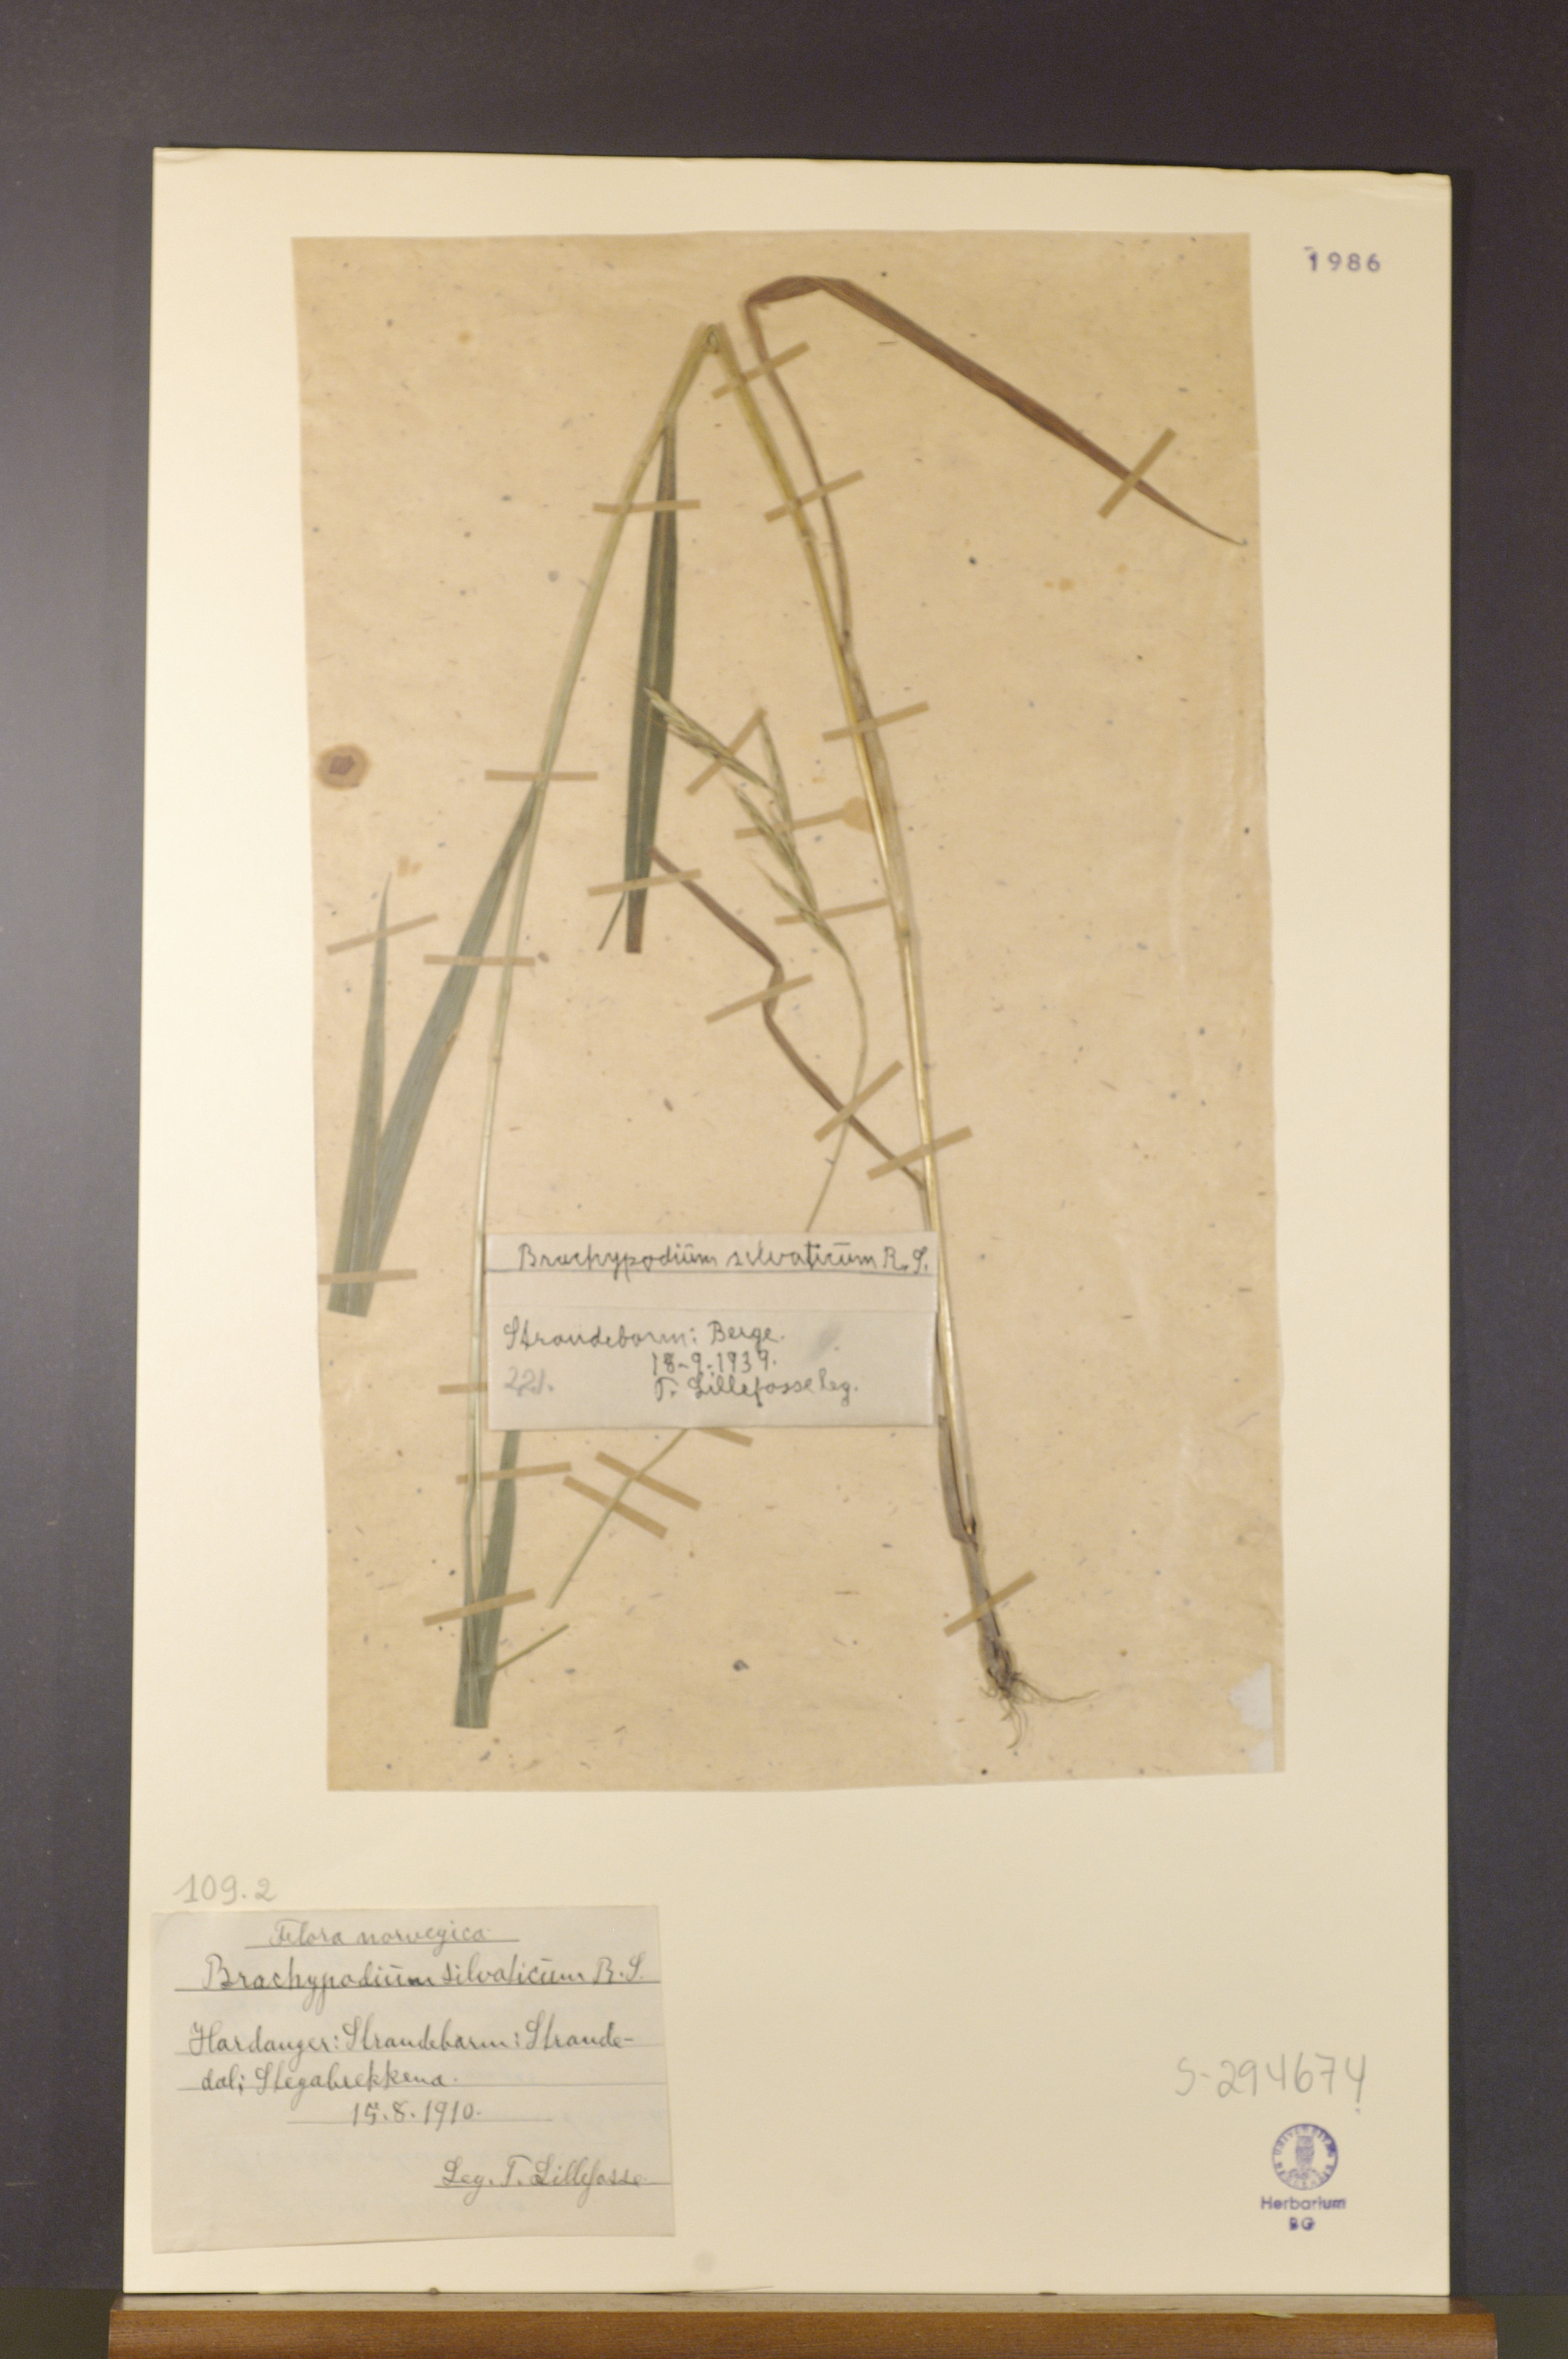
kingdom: Plantae
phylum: Tracheophyta
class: Liliopsida
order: Poales
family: Poaceae
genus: Brachypodium
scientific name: Brachypodium sylvaticum
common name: False-brome
